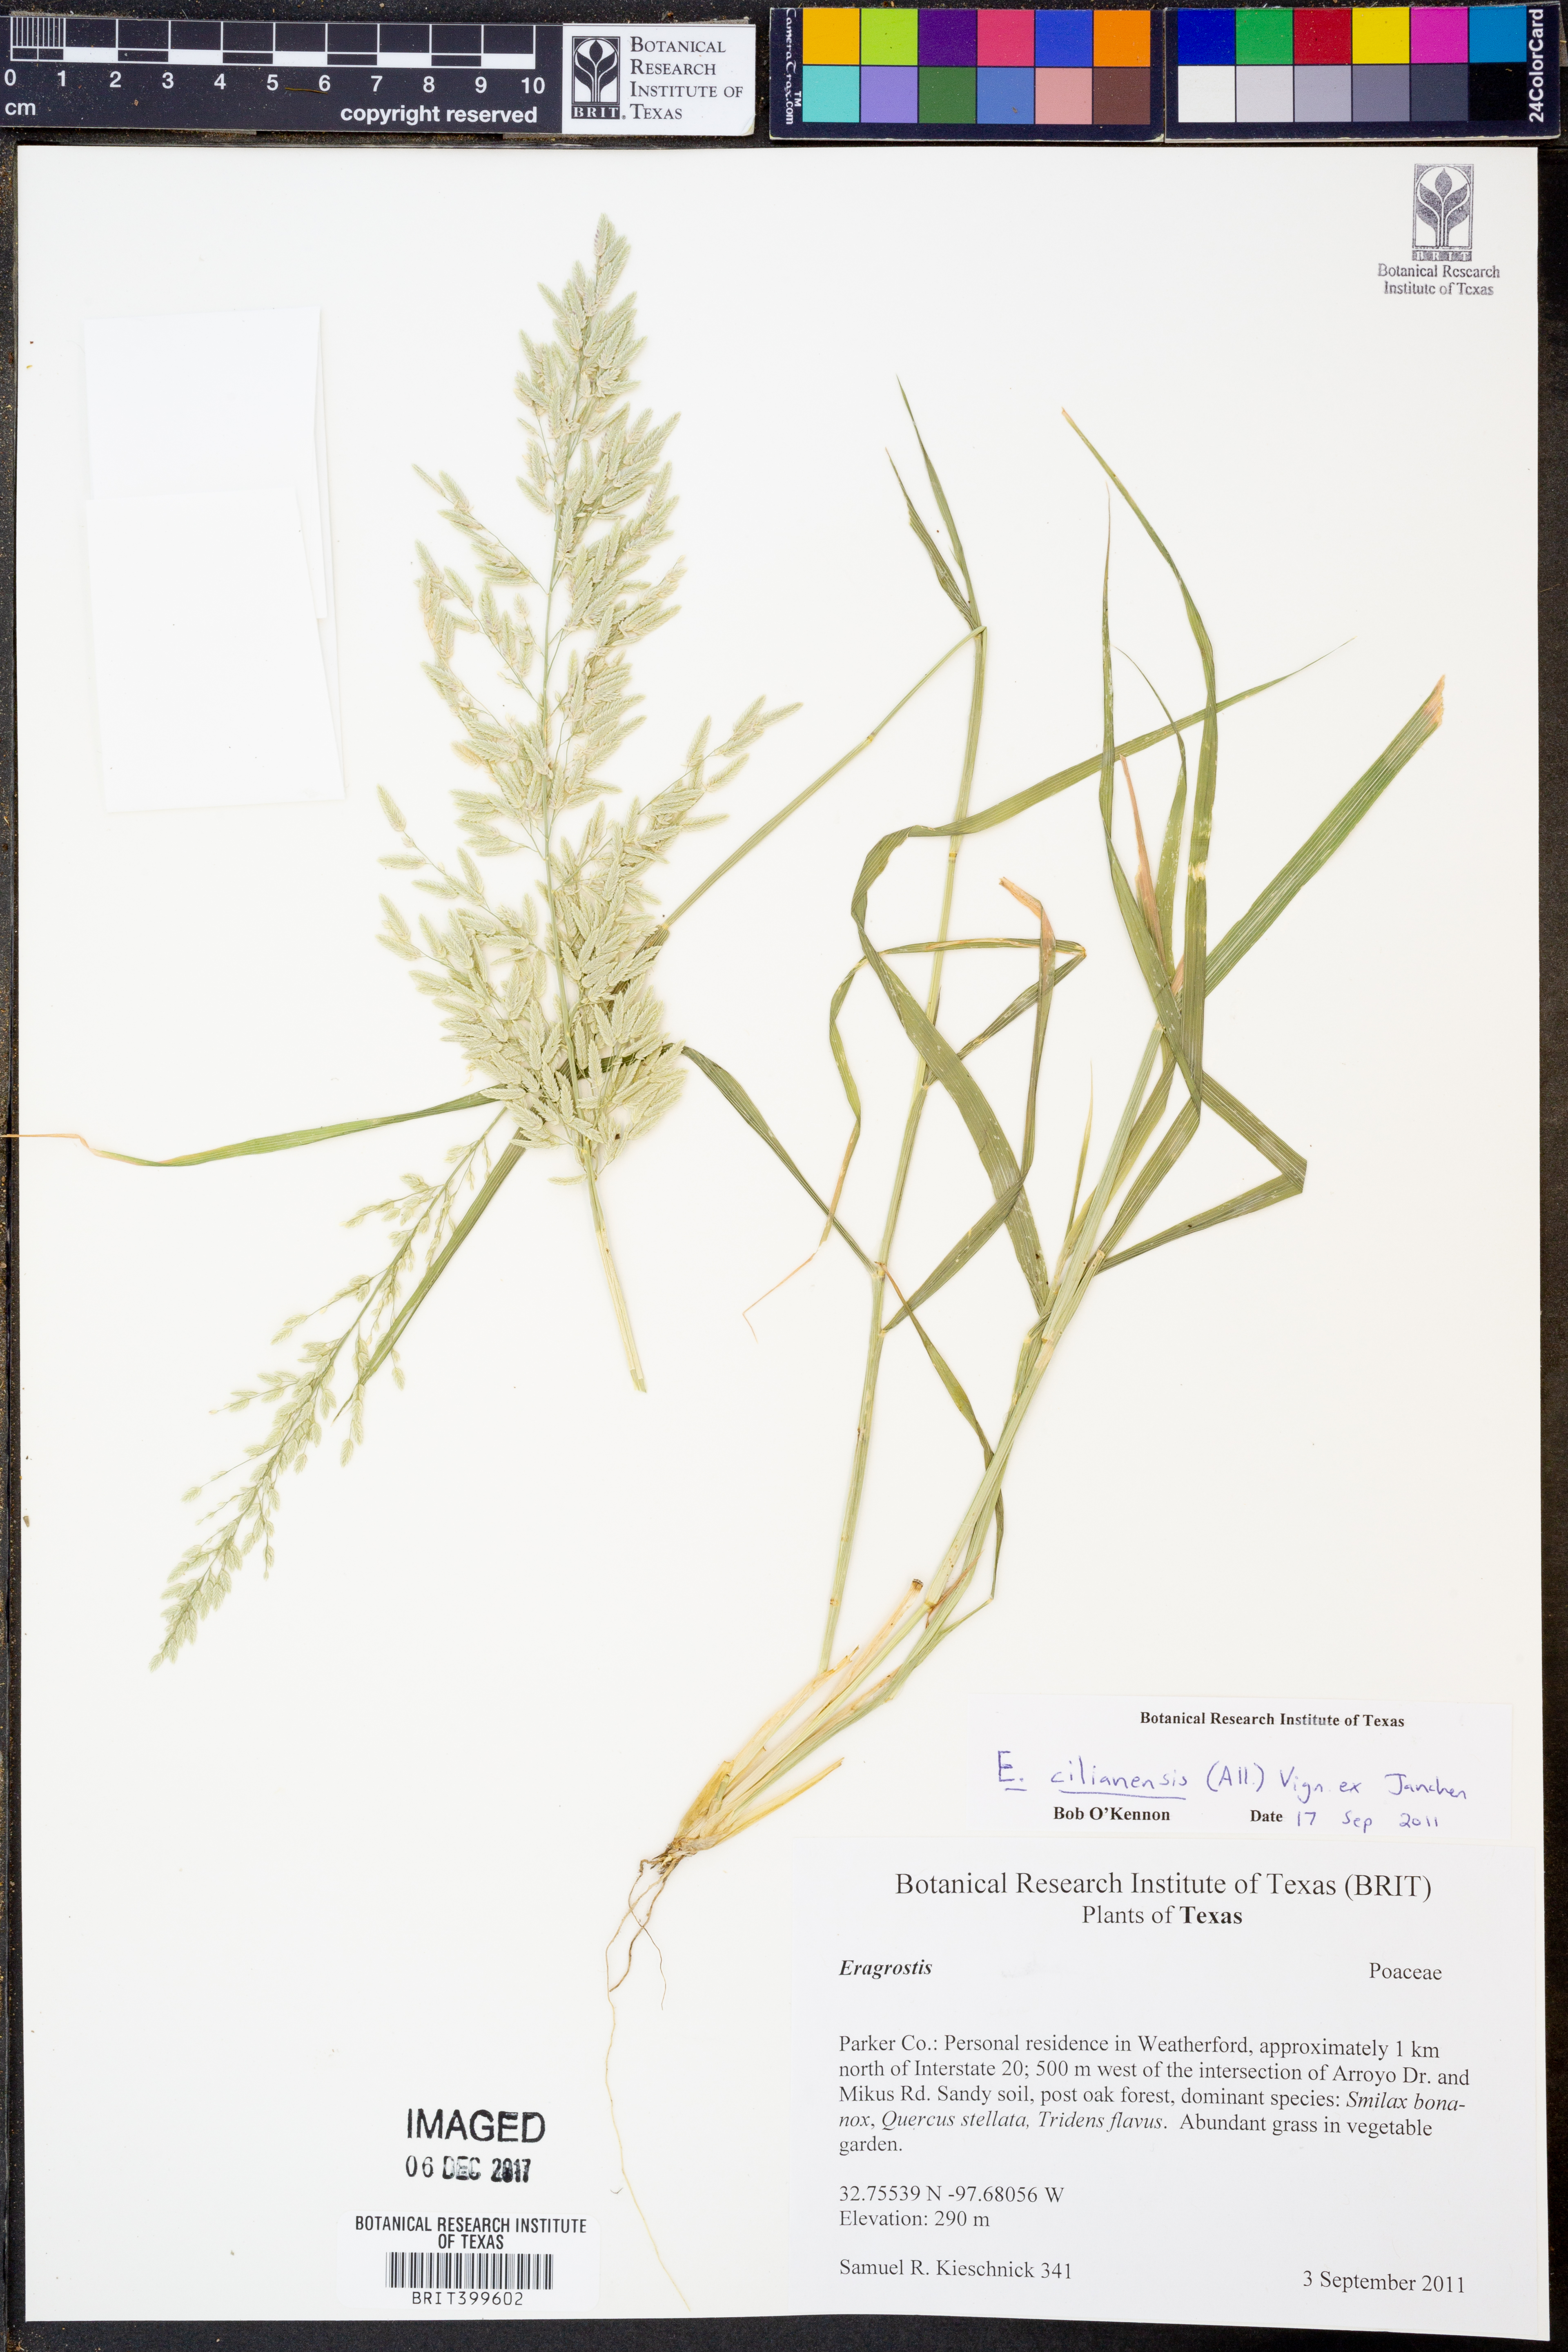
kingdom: Plantae
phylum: Tracheophyta
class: Liliopsida
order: Poales
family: Poaceae
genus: Eragrostis
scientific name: Eragrostis cilianensis
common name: Stinkgrass
